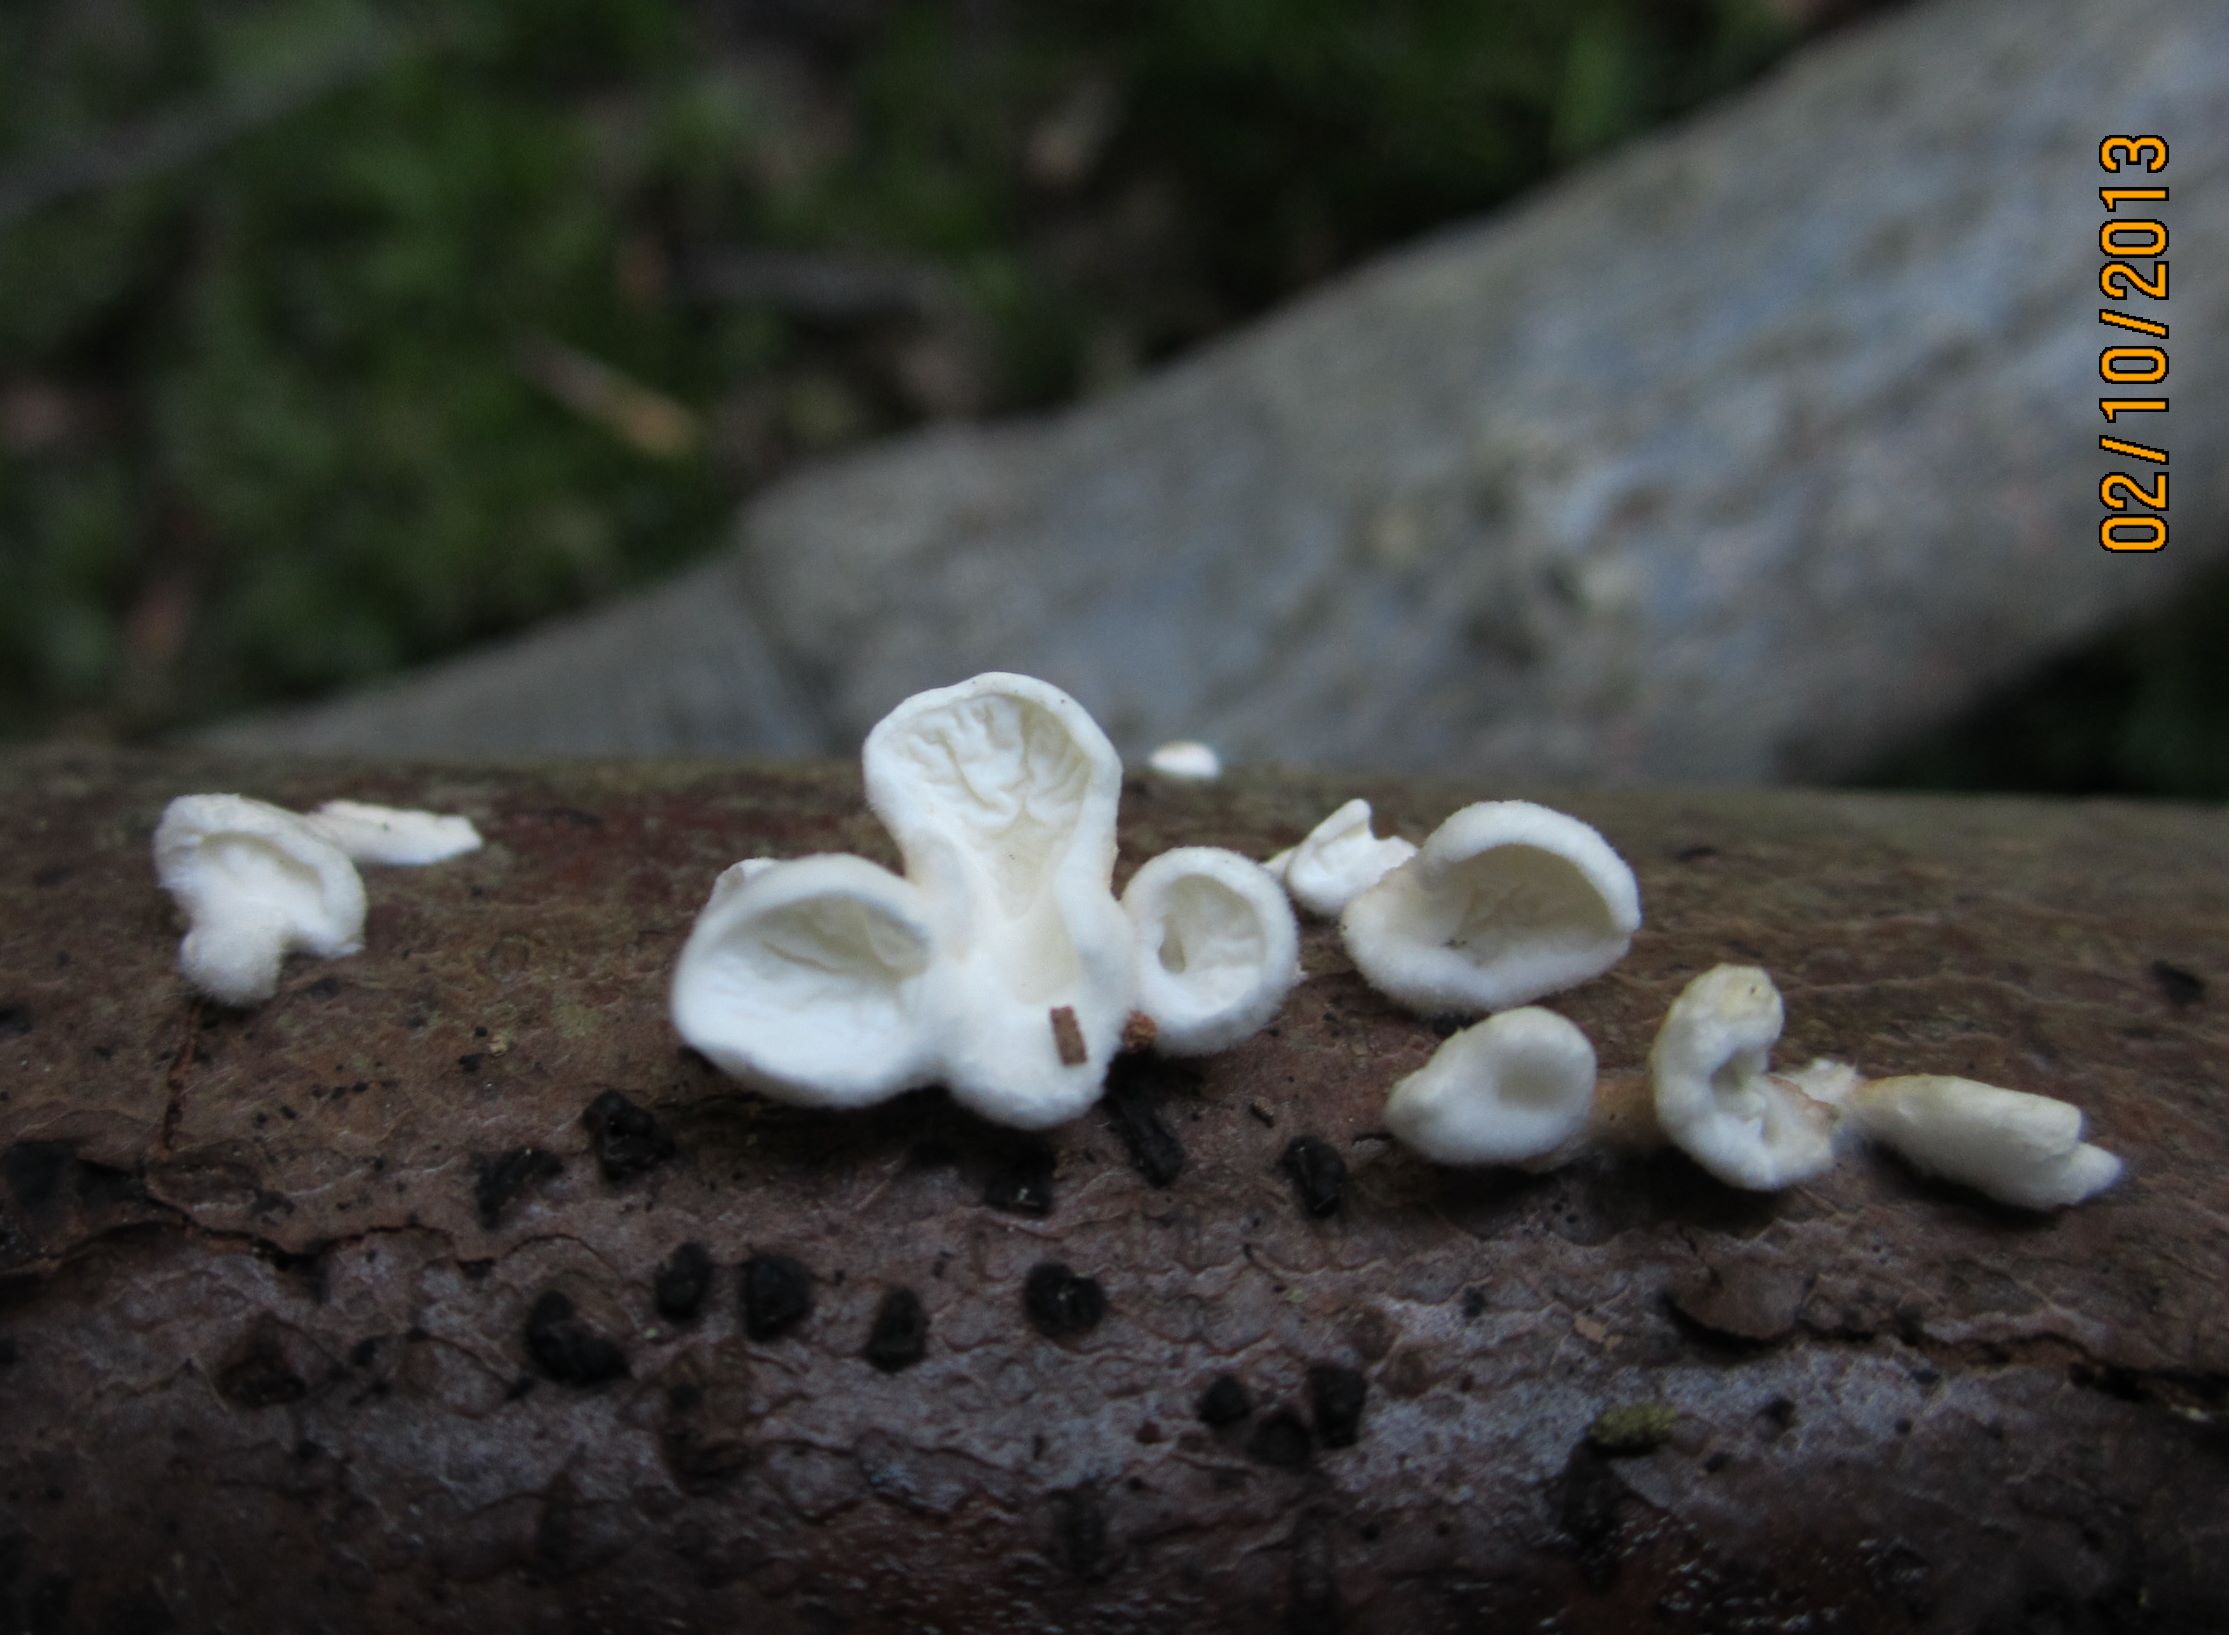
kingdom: Fungi
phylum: Basidiomycota
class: Agaricomycetes
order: Amylocorticiales
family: Amylocorticiaceae
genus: Plicaturopsis
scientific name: Plicaturopsis crispa
